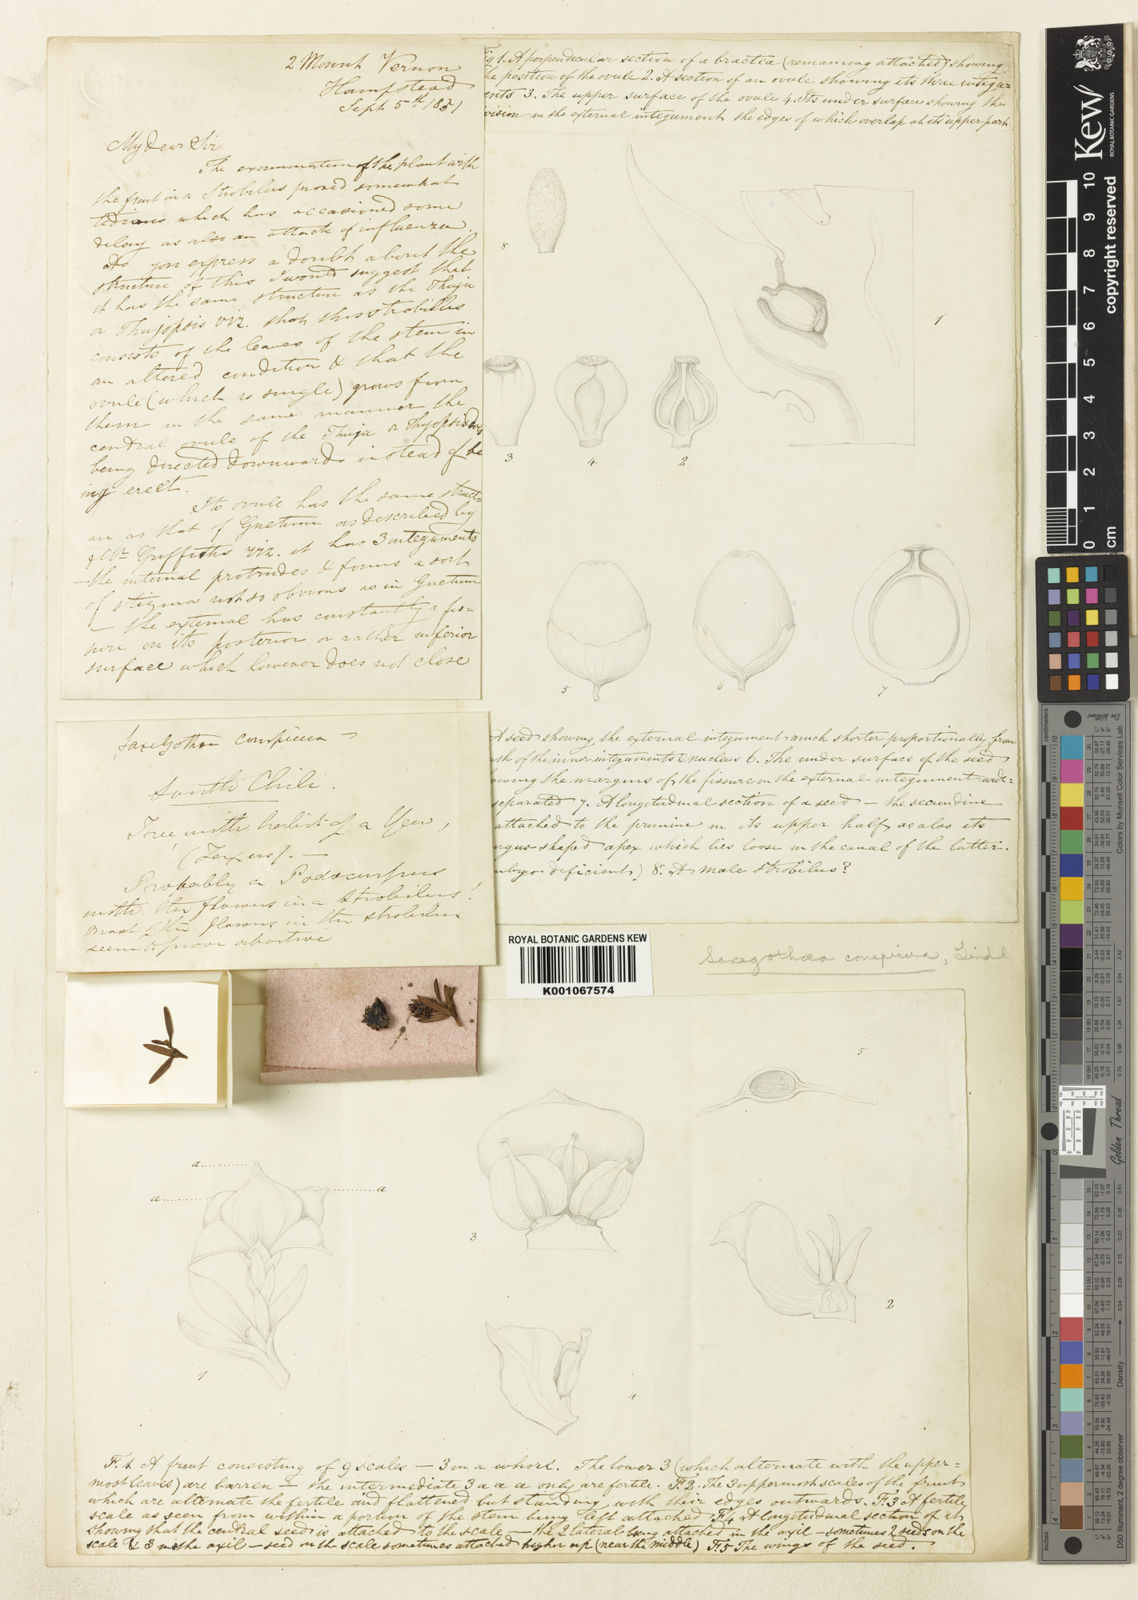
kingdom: Plantae
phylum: Tracheophyta
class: Pinopsida
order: Pinales
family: Podocarpaceae
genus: Saxegothaea
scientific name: Saxegothaea conspicua
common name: Prince albert's yew
